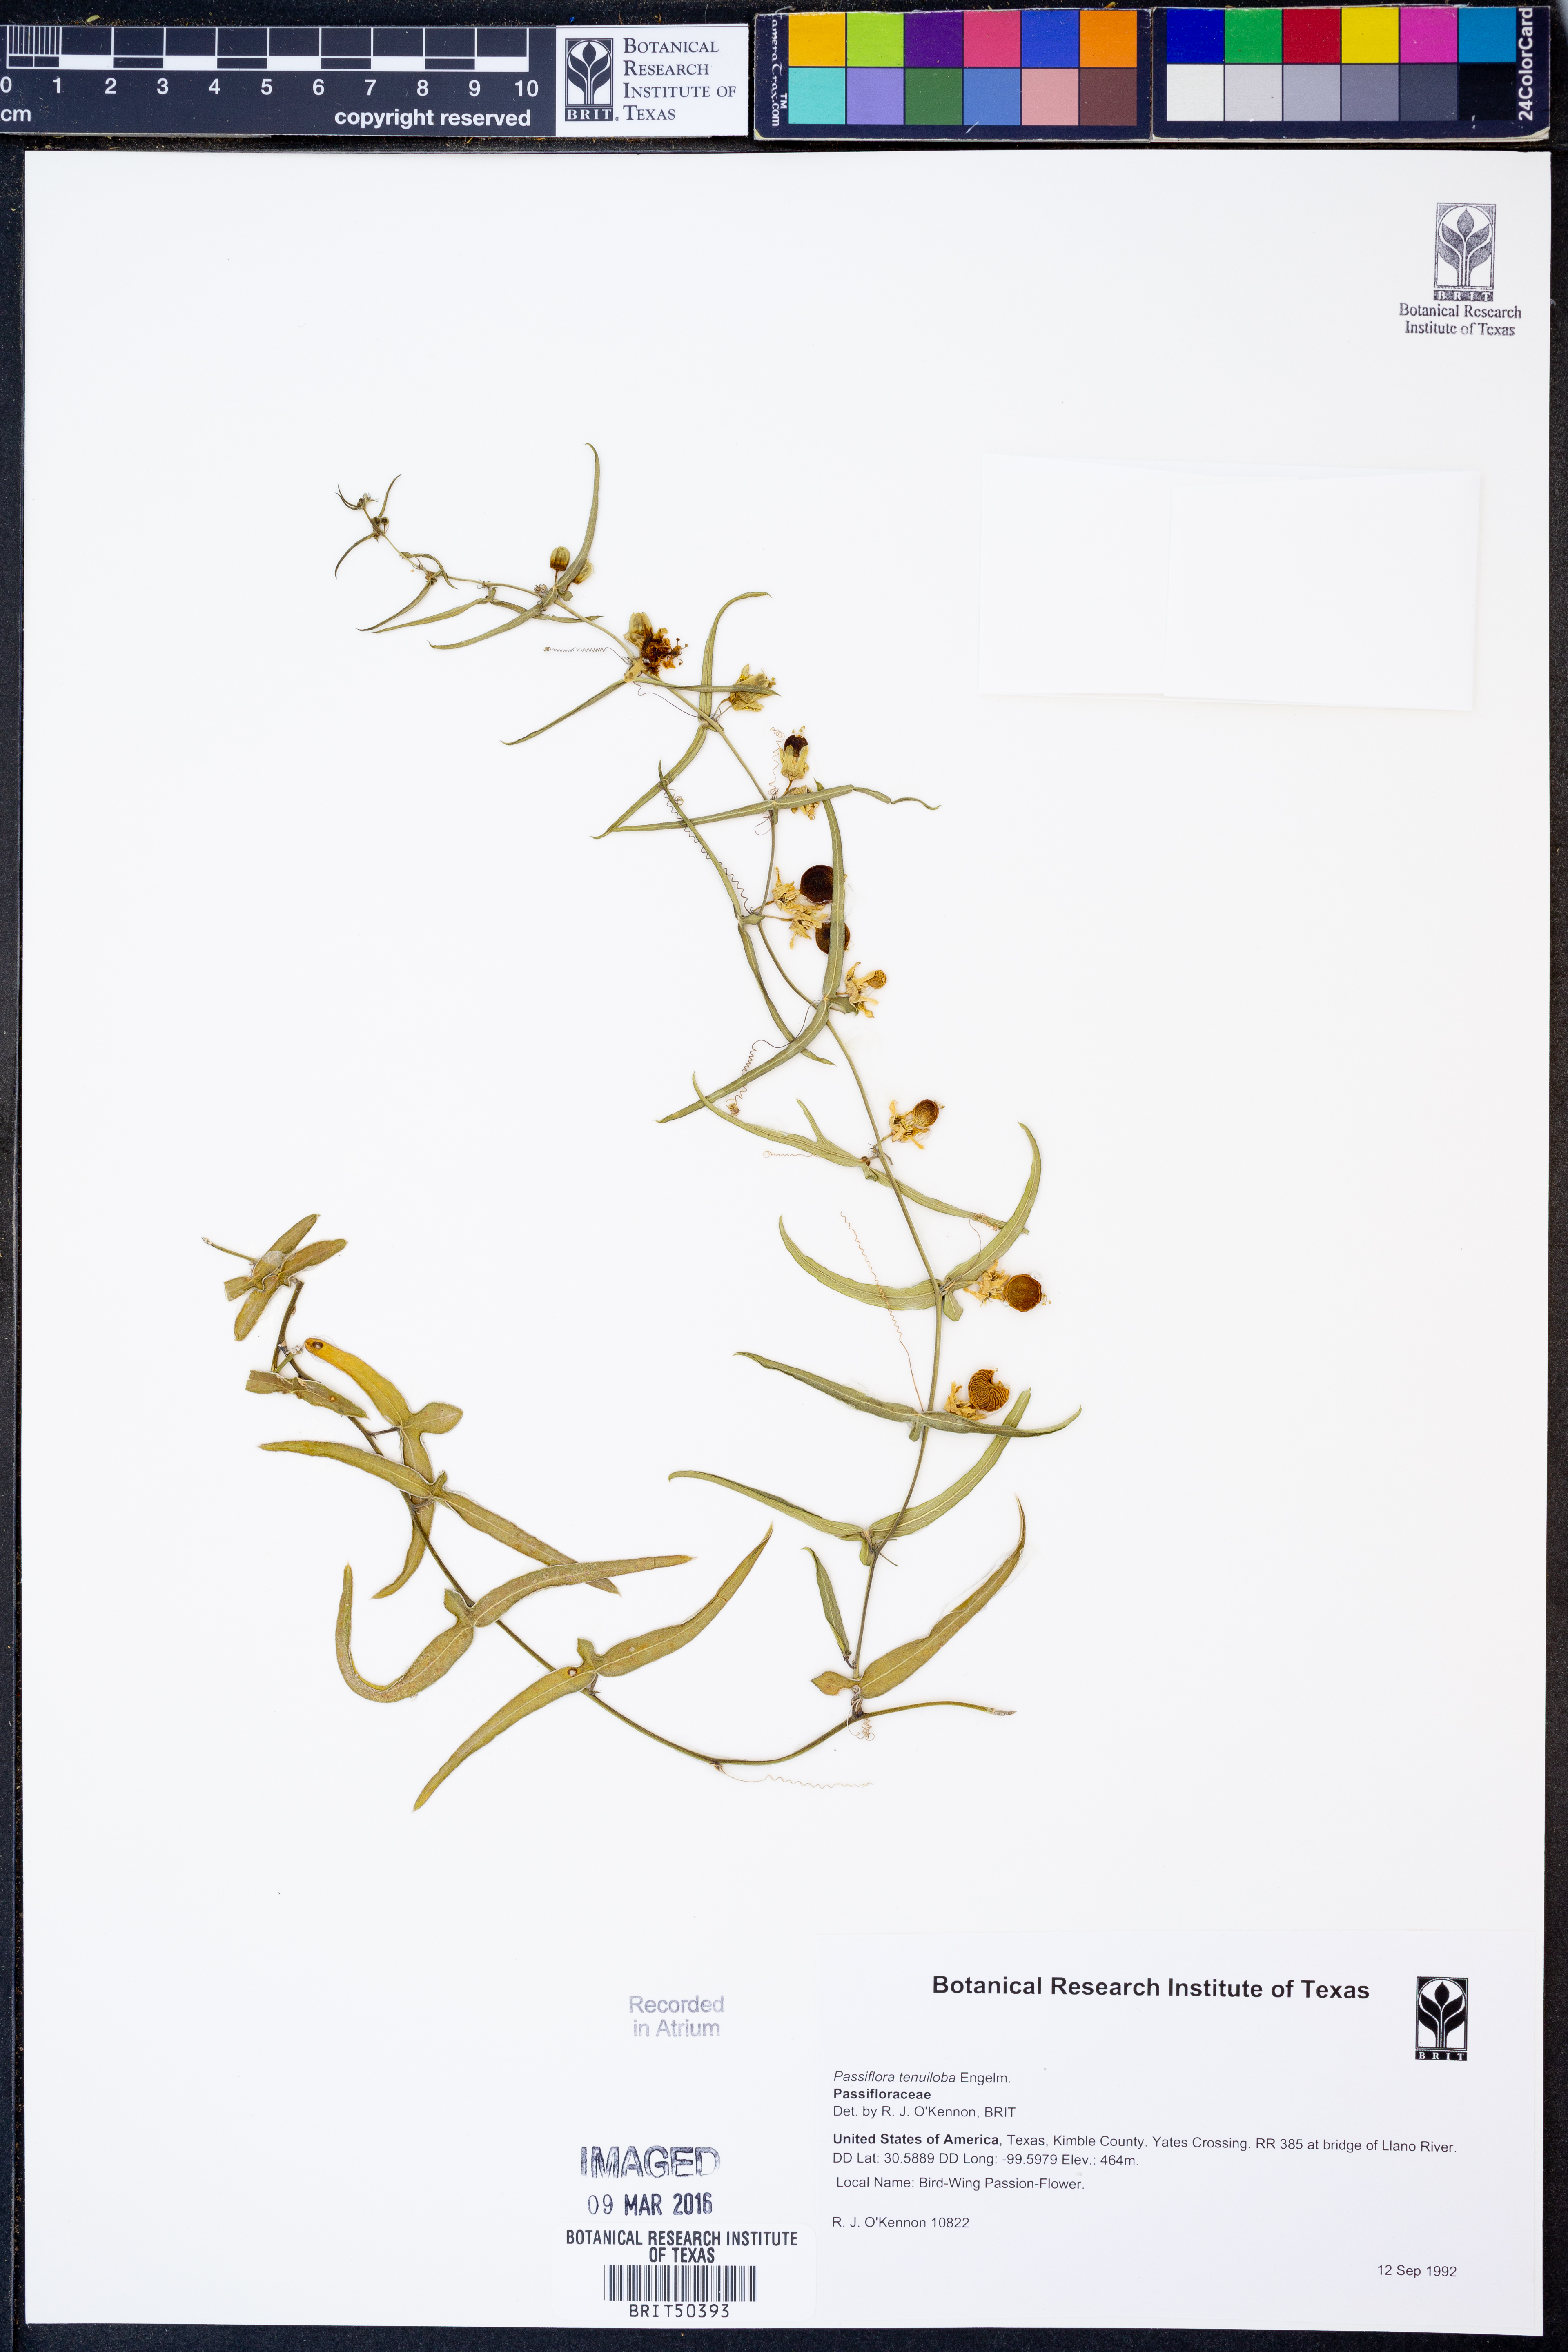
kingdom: Plantae
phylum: Tracheophyta
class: Magnoliopsida
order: Malpighiales
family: Passifloraceae
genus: Passiflora
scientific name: Passiflora tenuiloba
